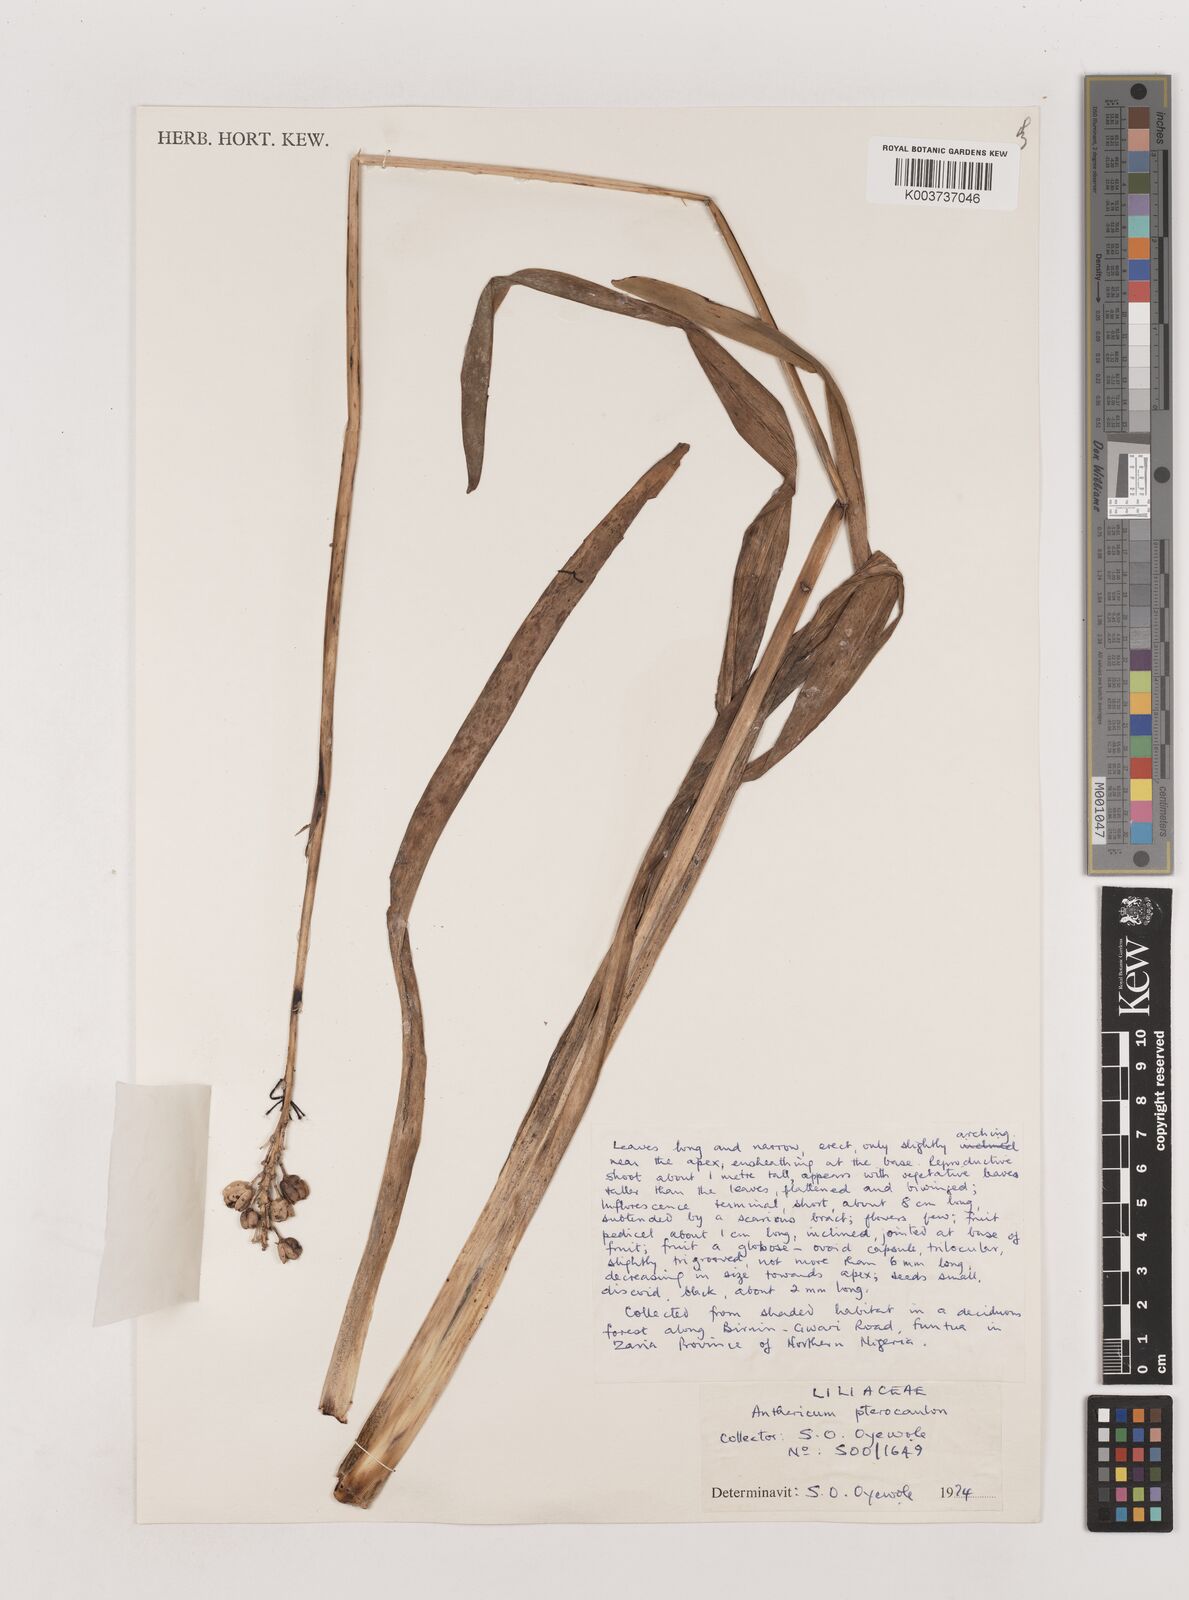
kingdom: Plantae
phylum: Tracheophyta
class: Liliopsida
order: Asparagales
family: Asparagaceae
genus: Chlorophytum
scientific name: Chlorophytum cameronii
